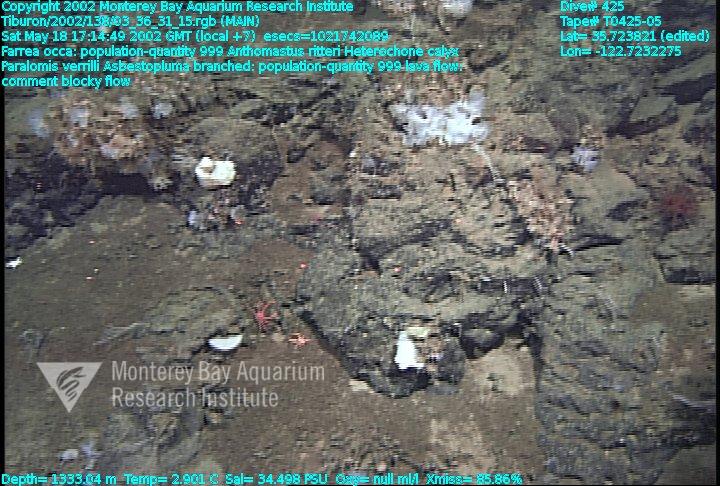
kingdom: Animalia
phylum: Porifera
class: Demospongiae
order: Poecilosclerida
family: Cladorhizidae
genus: Asbestopluma
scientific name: Asbestopluma monticola
